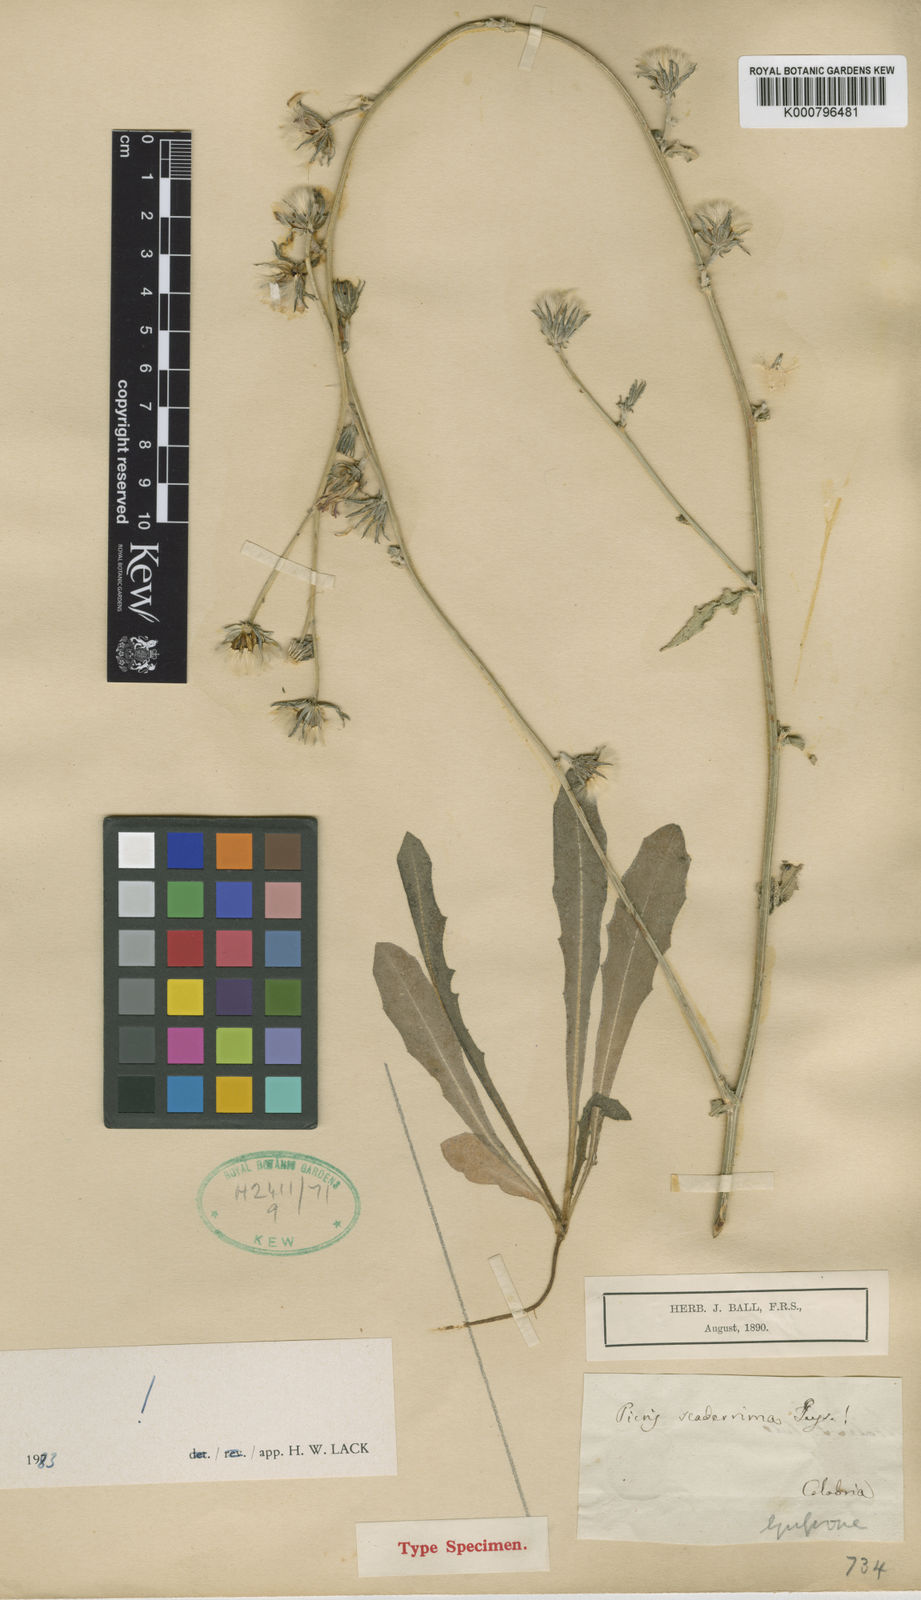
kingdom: Plantae
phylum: Tracheophyta
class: Magnoliopsida
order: Asterales
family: Asteraceae
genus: Picris
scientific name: Picris scaberrima
